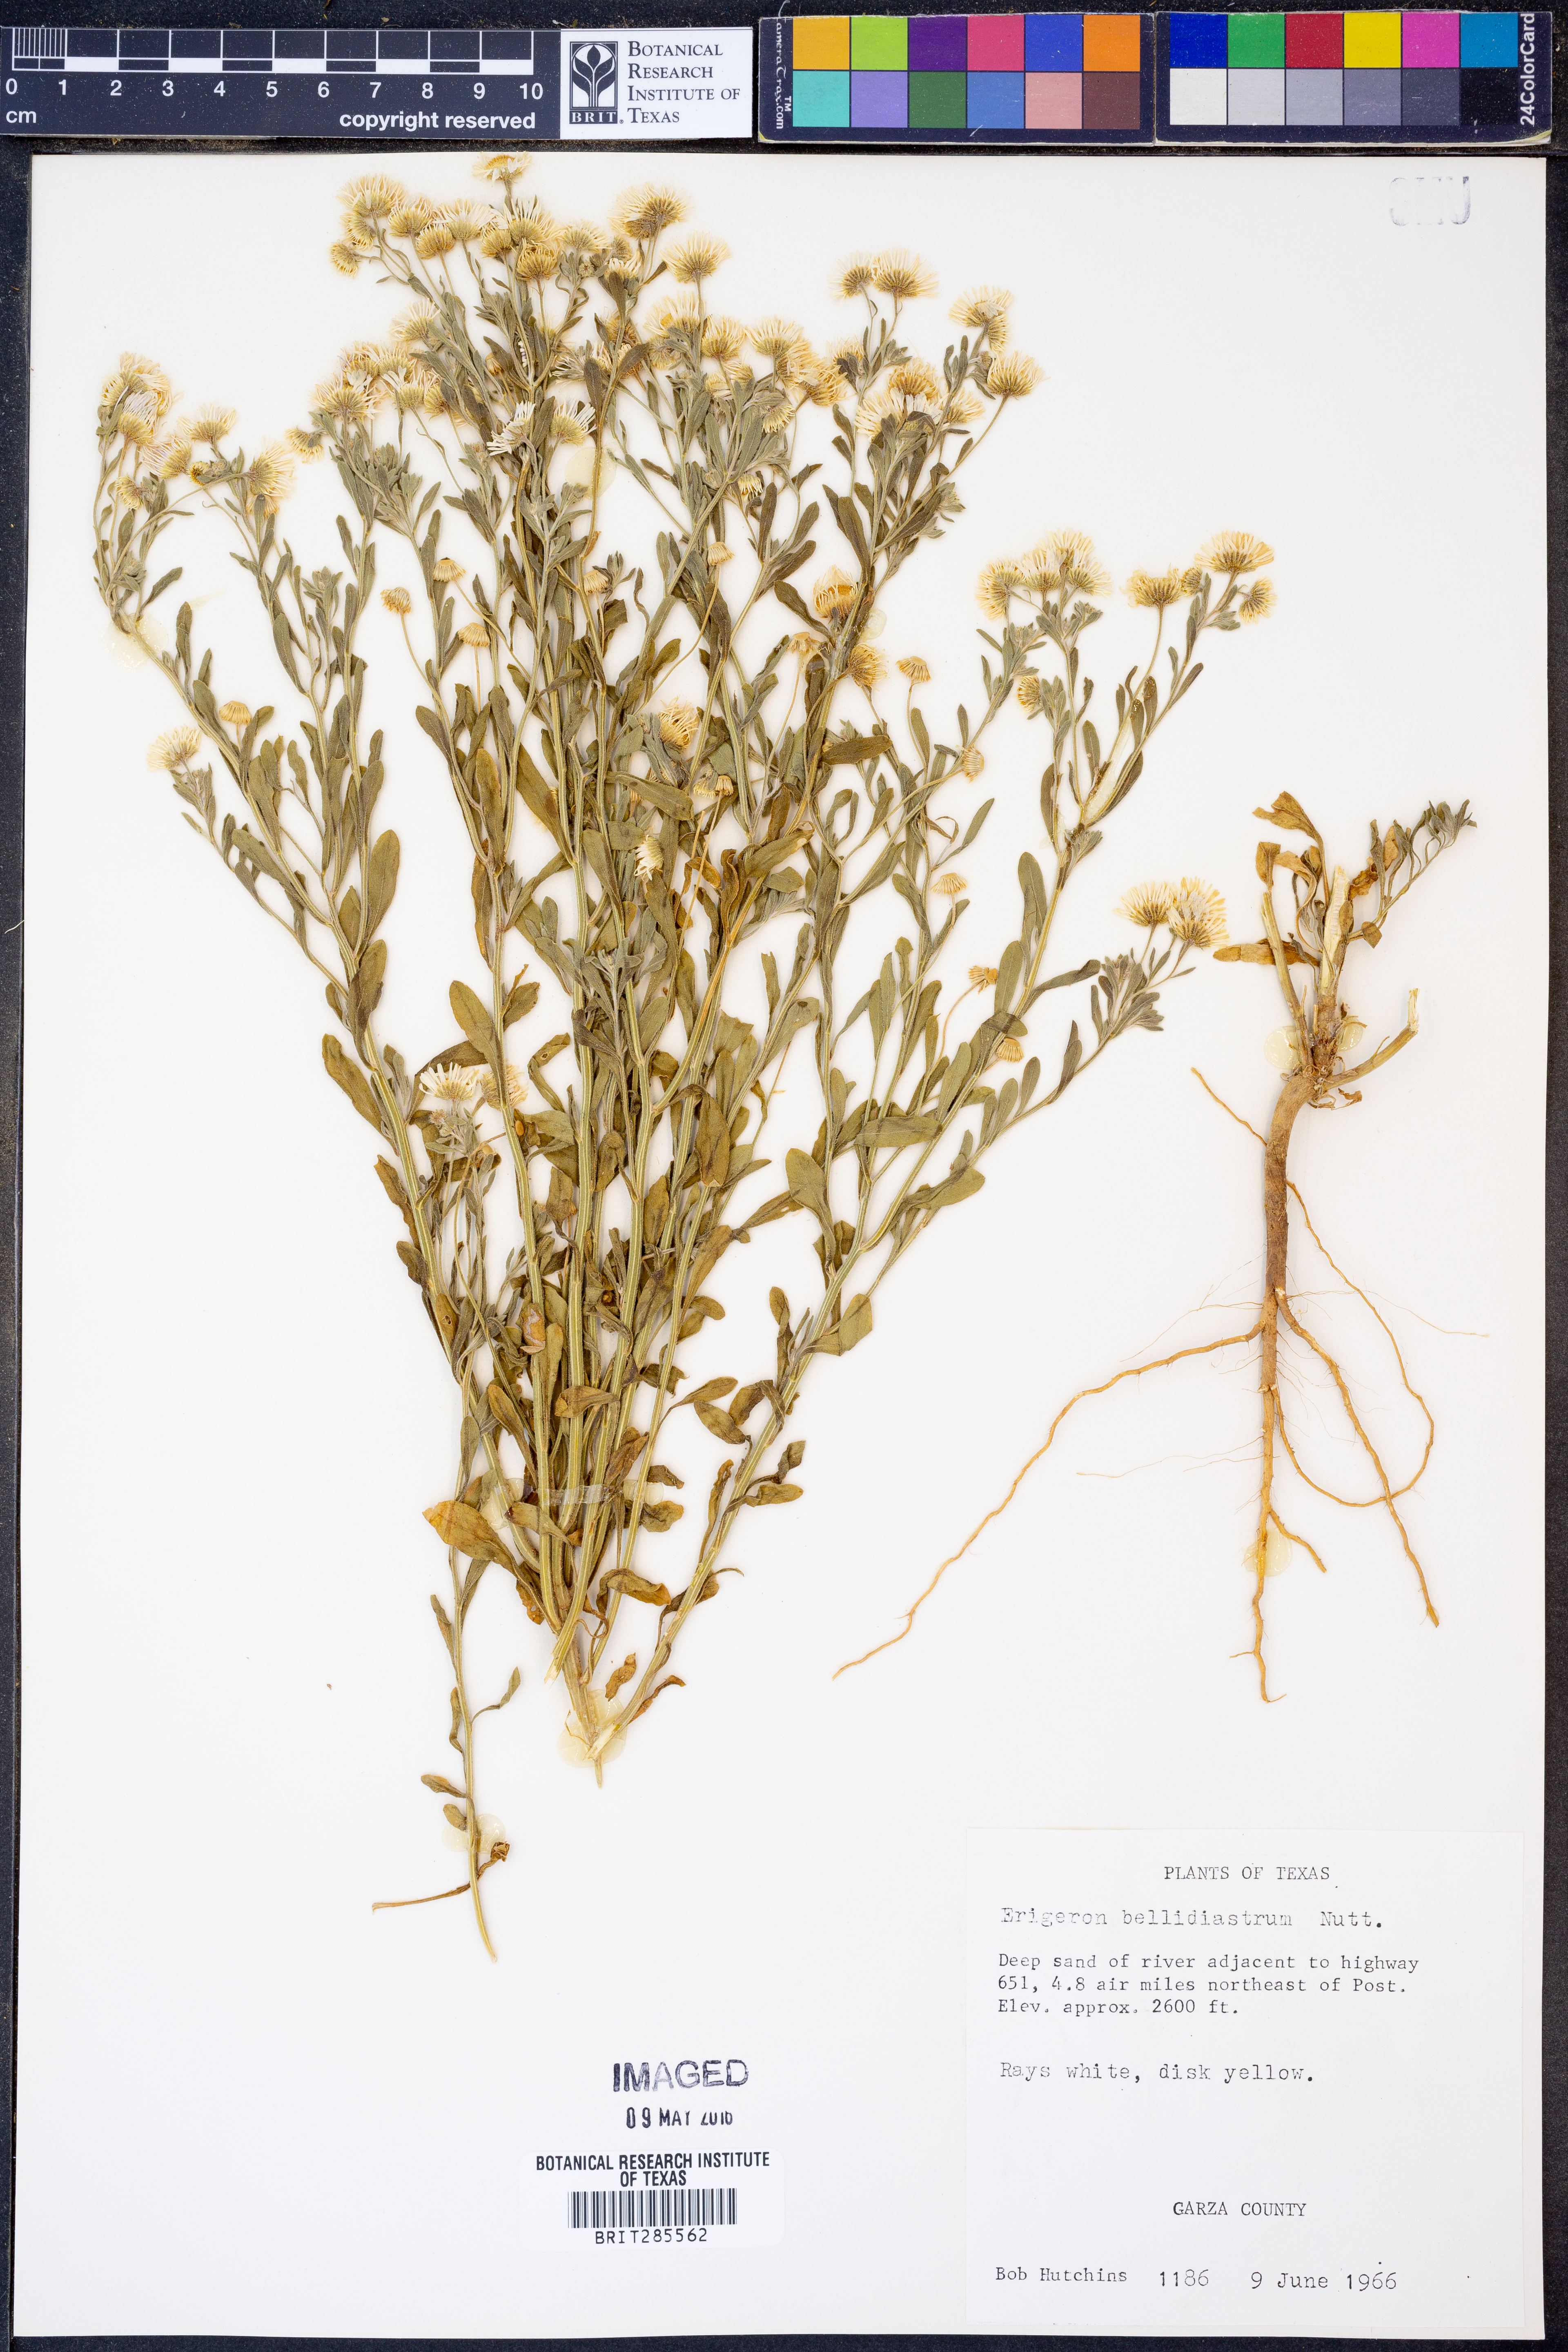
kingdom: Plantae
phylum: Tracheophyta
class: Magnoliopsida
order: Asterales
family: Asteraceae
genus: Erigeron
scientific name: Erigeron bellidiastrum
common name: Sand fleabane
